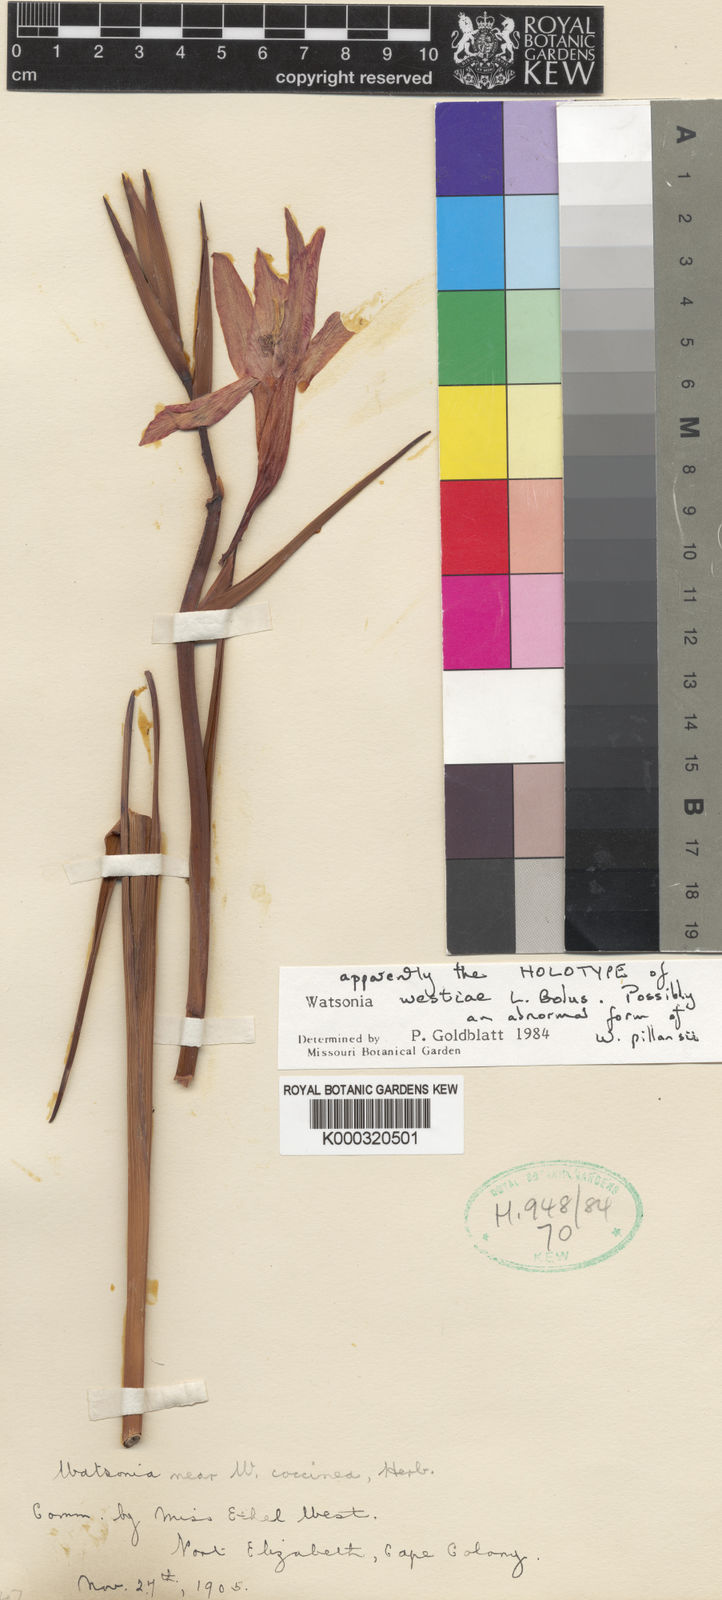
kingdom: Plantae
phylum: Tracheophyta
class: Liliopsida
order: Asparagales
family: Iridaceae
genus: Watsonia
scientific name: Watsonia pillansii
